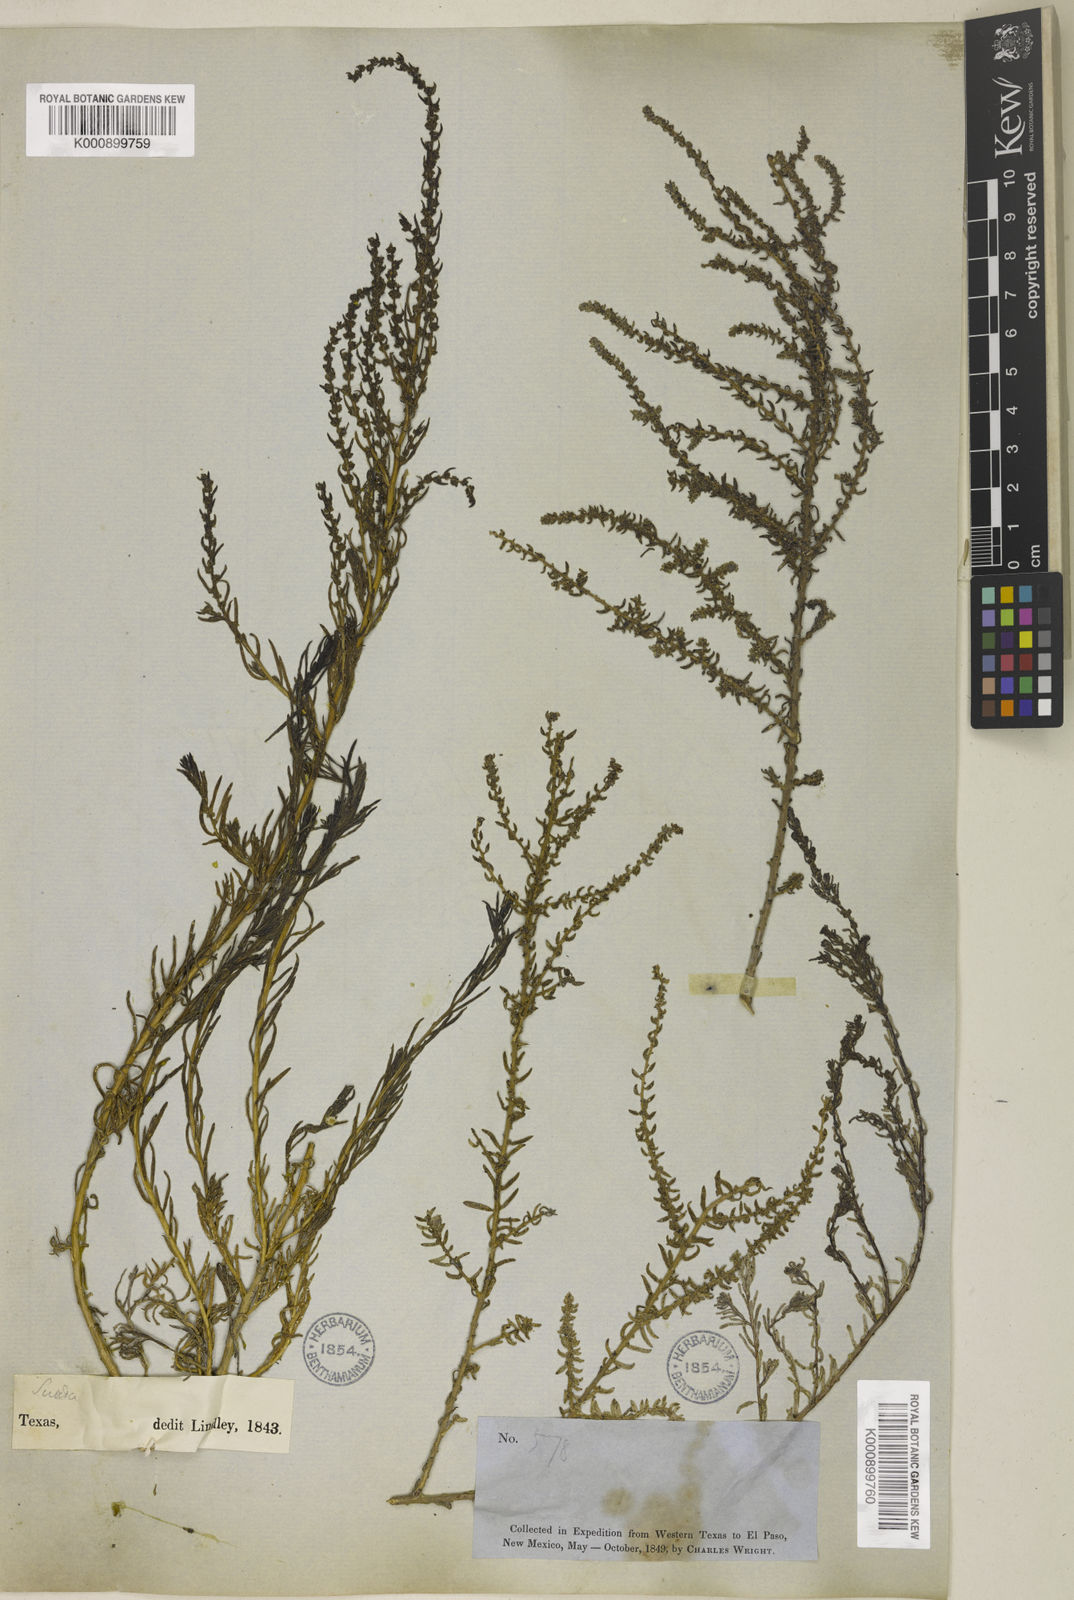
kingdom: Plantae
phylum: Tracheophyta
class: Magnoliopsida
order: Caryophyllales
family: Amaranthaceae
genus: Suaeda
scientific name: Suaeda nigra
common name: Bush seepweed
